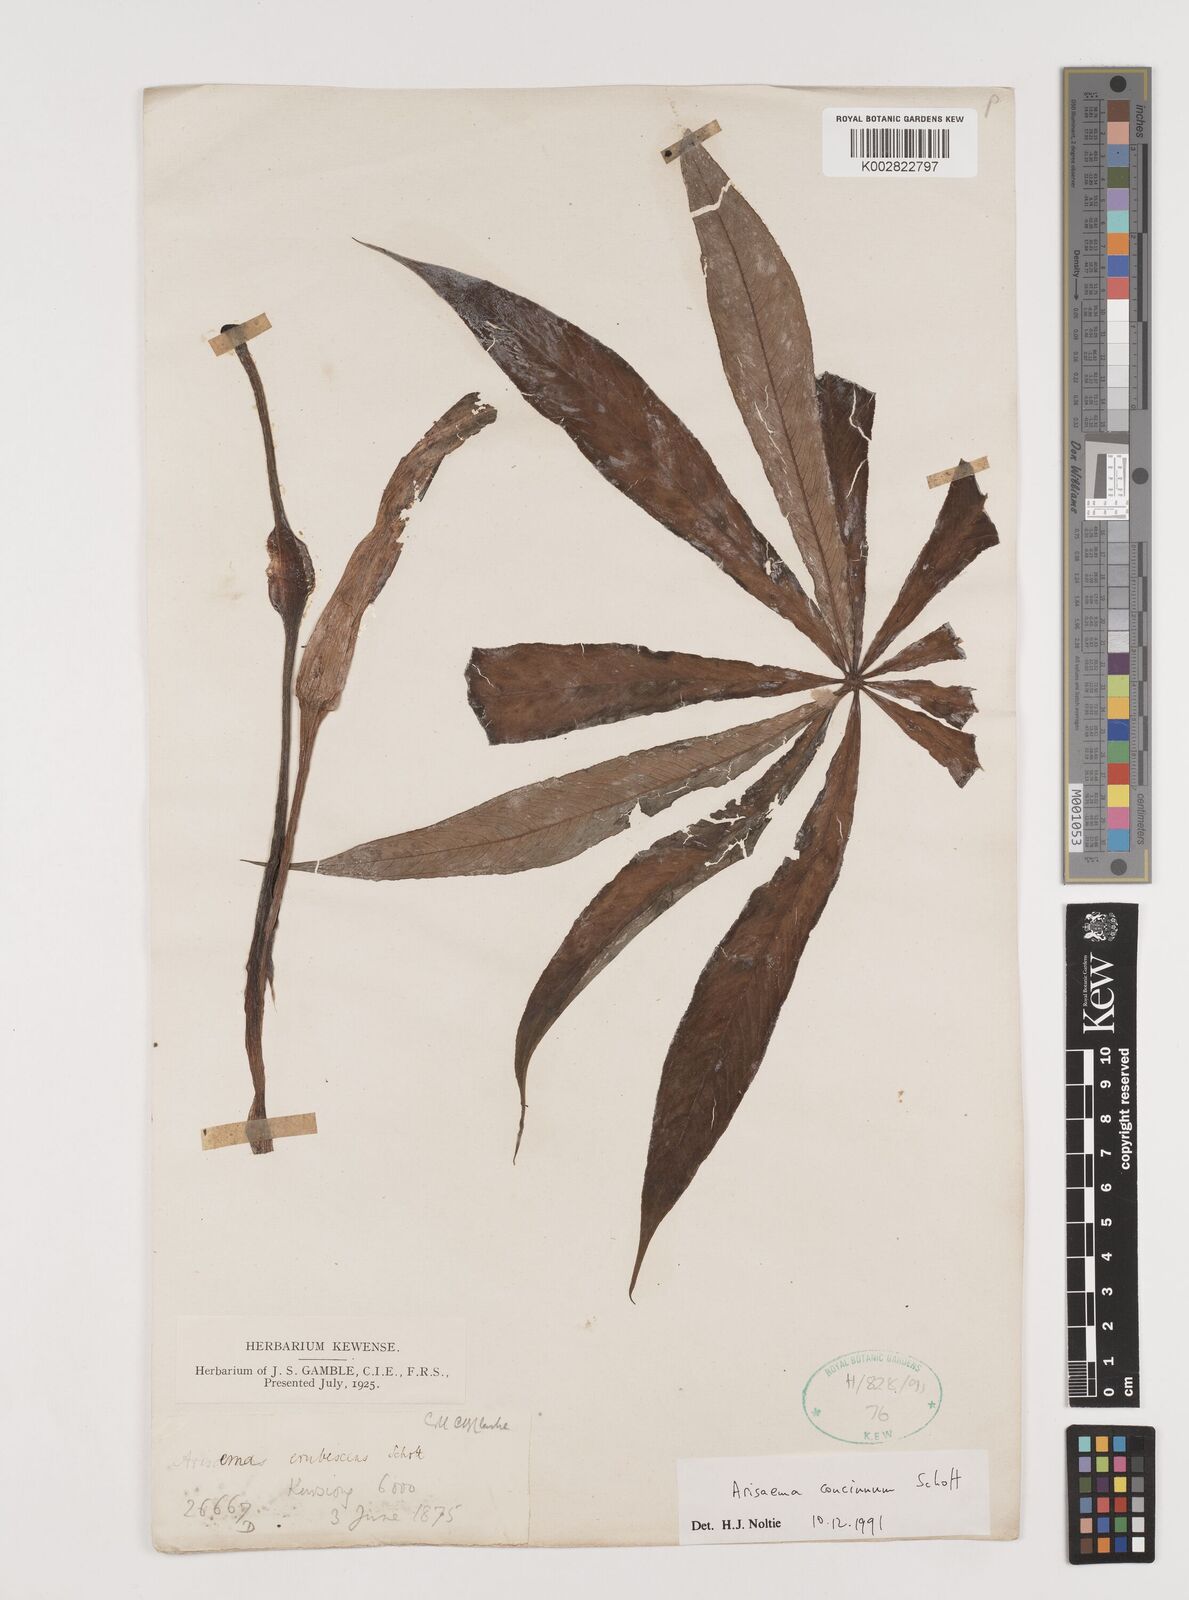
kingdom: Plantae
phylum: Tracheophyta
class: Liliopsida
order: Alismatales
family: Araceae
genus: Arisaema
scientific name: Arisaema concinnum
